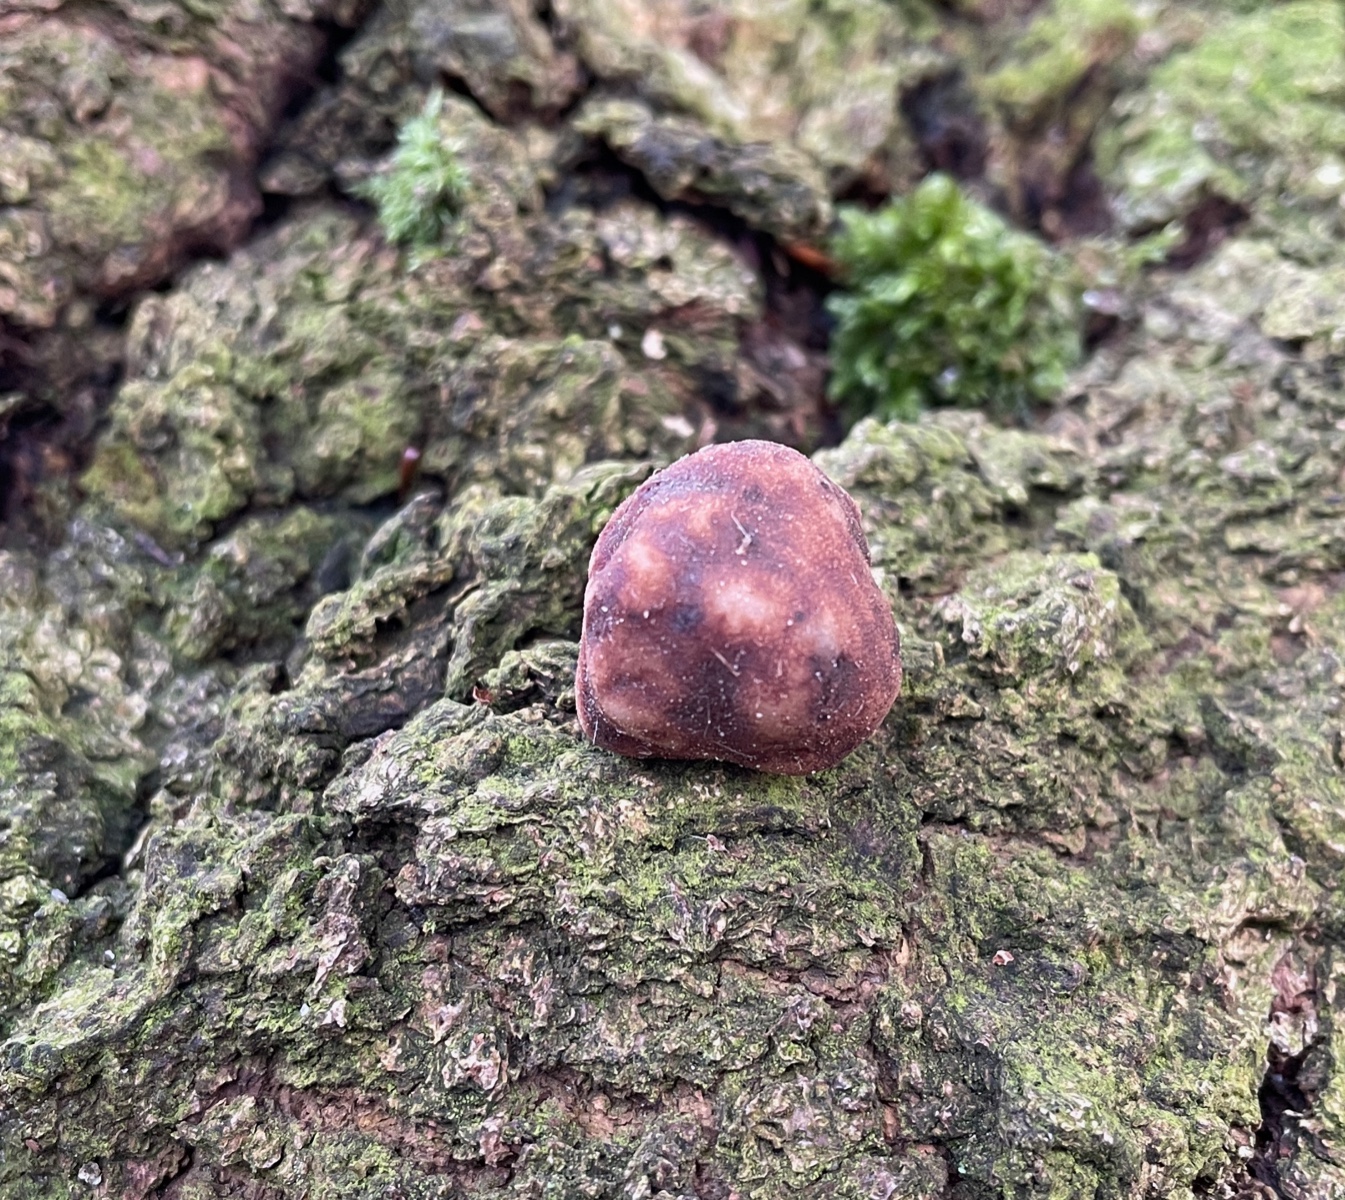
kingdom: Fungi
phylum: Ascomycota
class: Pezizomycetes
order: Pezizales
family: Tuberaceae
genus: Tuber
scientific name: Tuber
